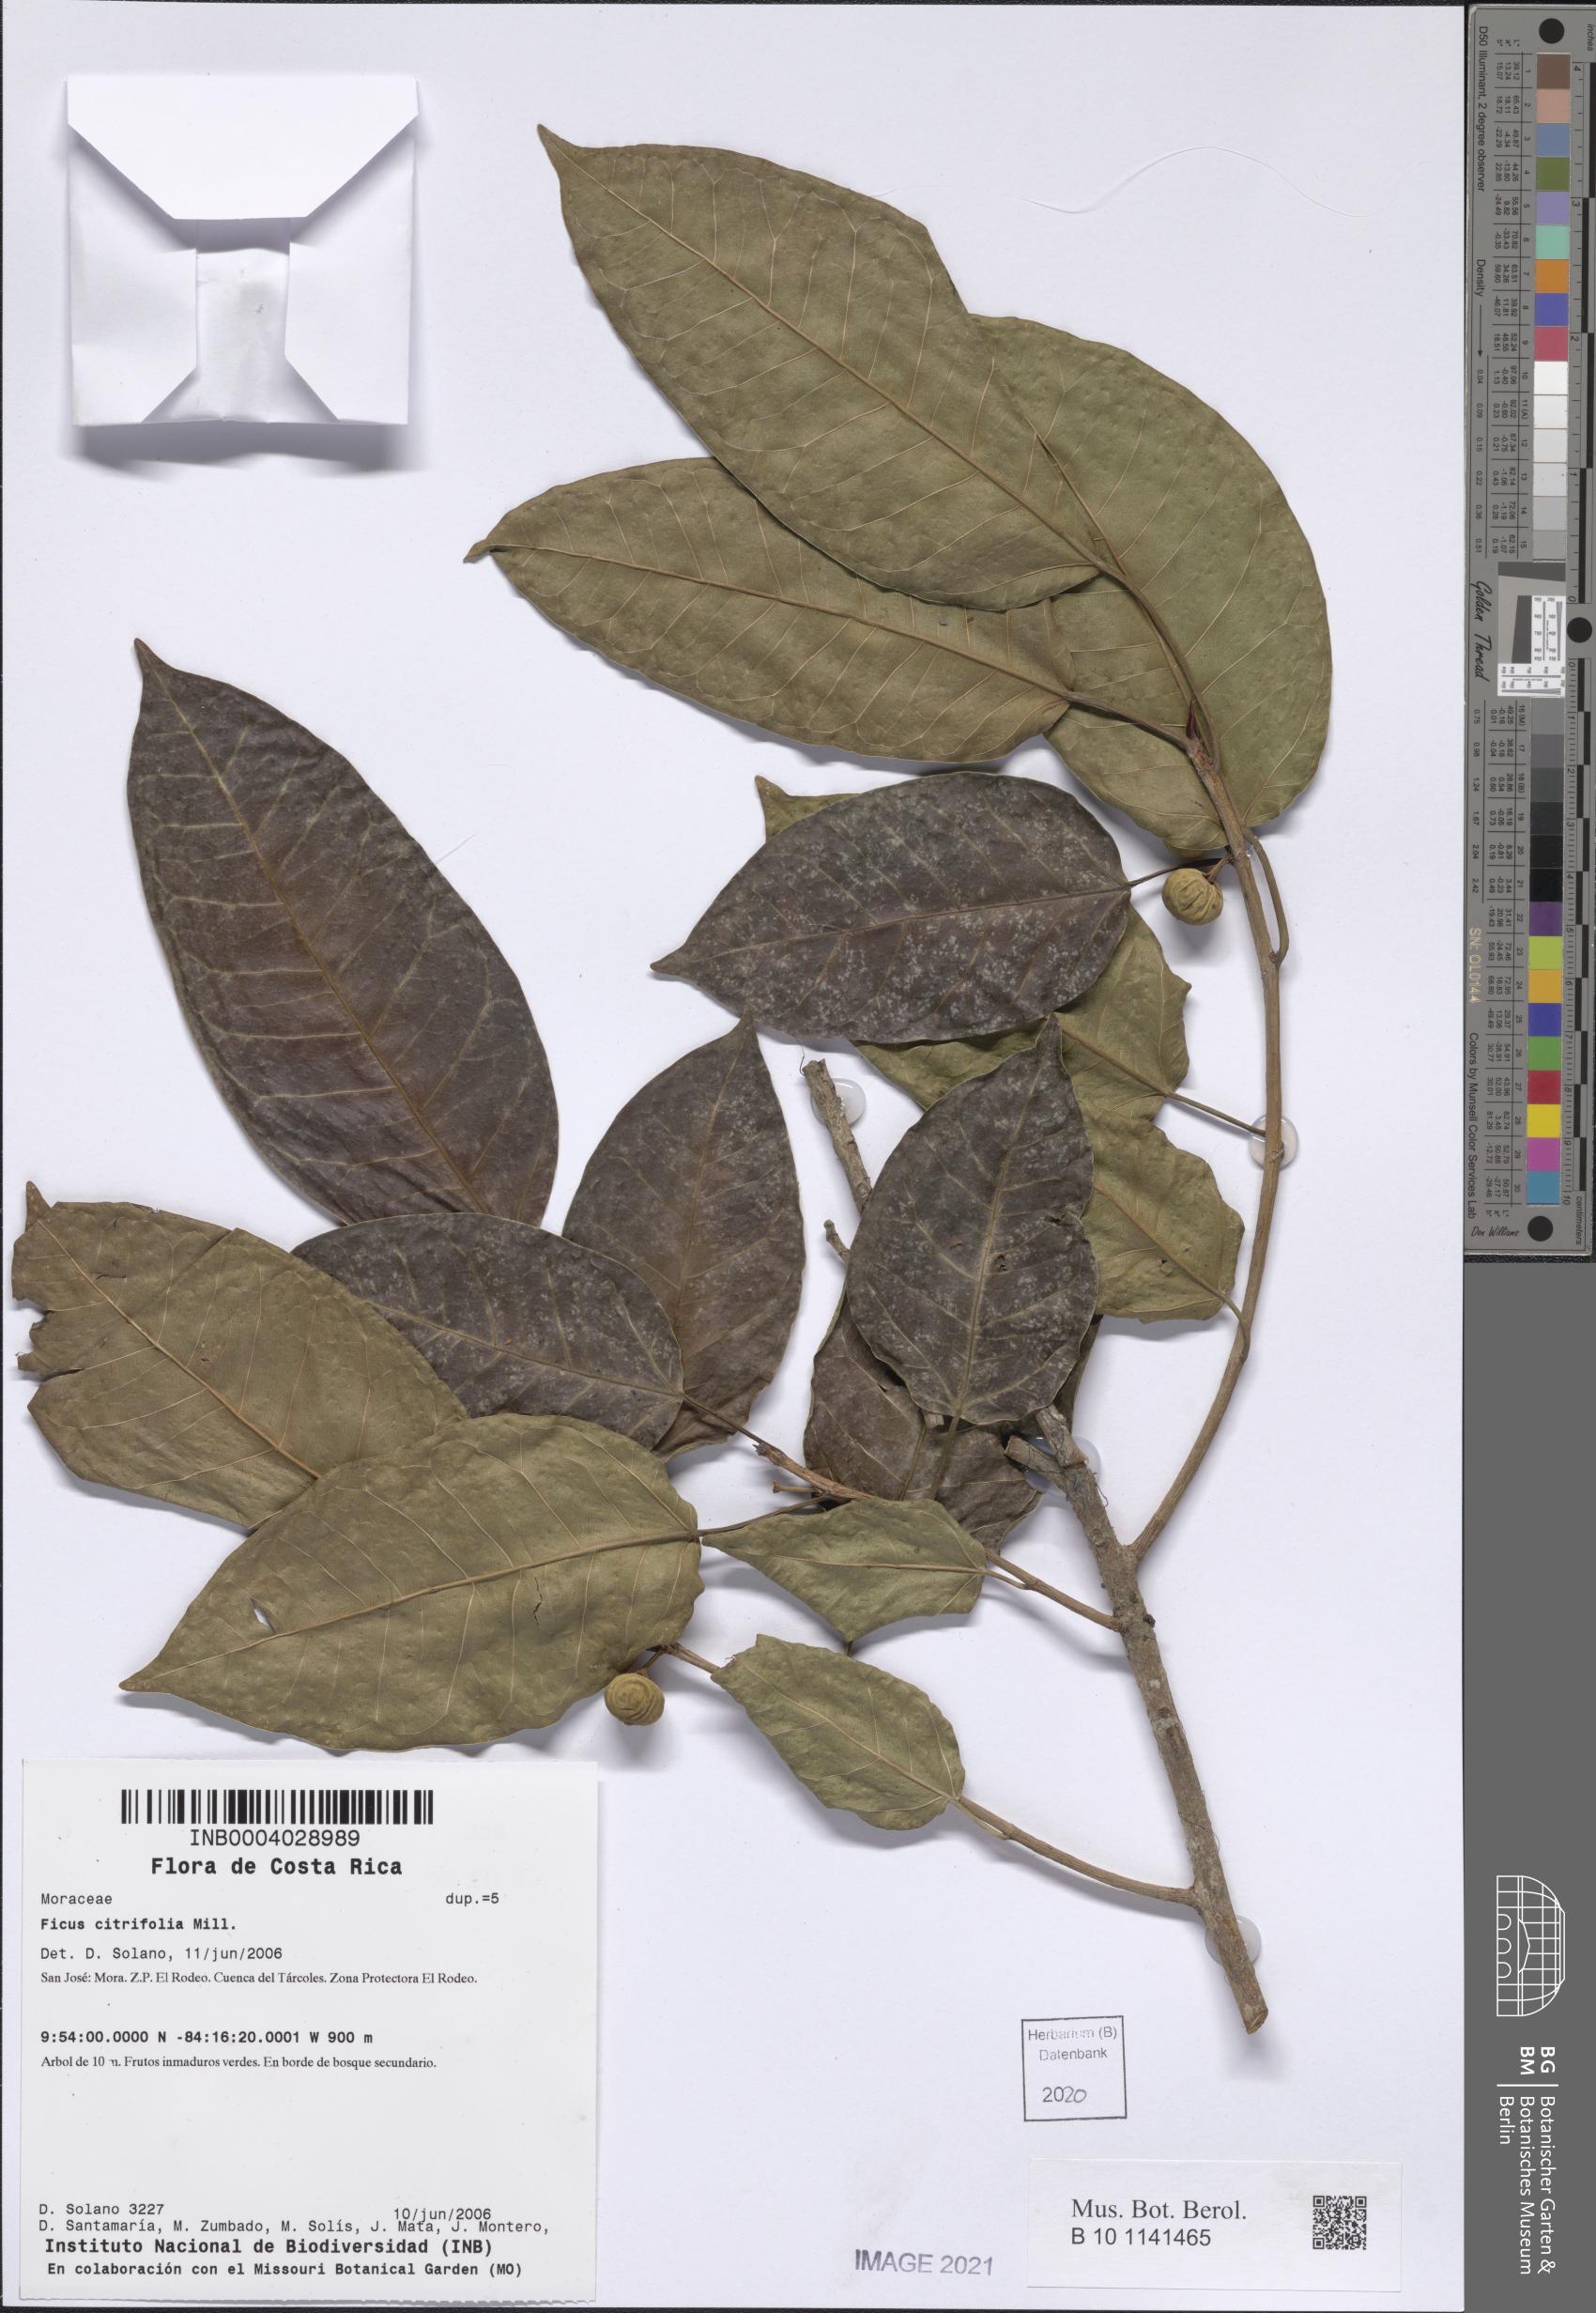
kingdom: Plantae
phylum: Tracheophyta
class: Magnoliopsida
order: Rosales
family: Moraceae
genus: Ficus
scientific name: Ficus citrifolia
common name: Strangler fig
